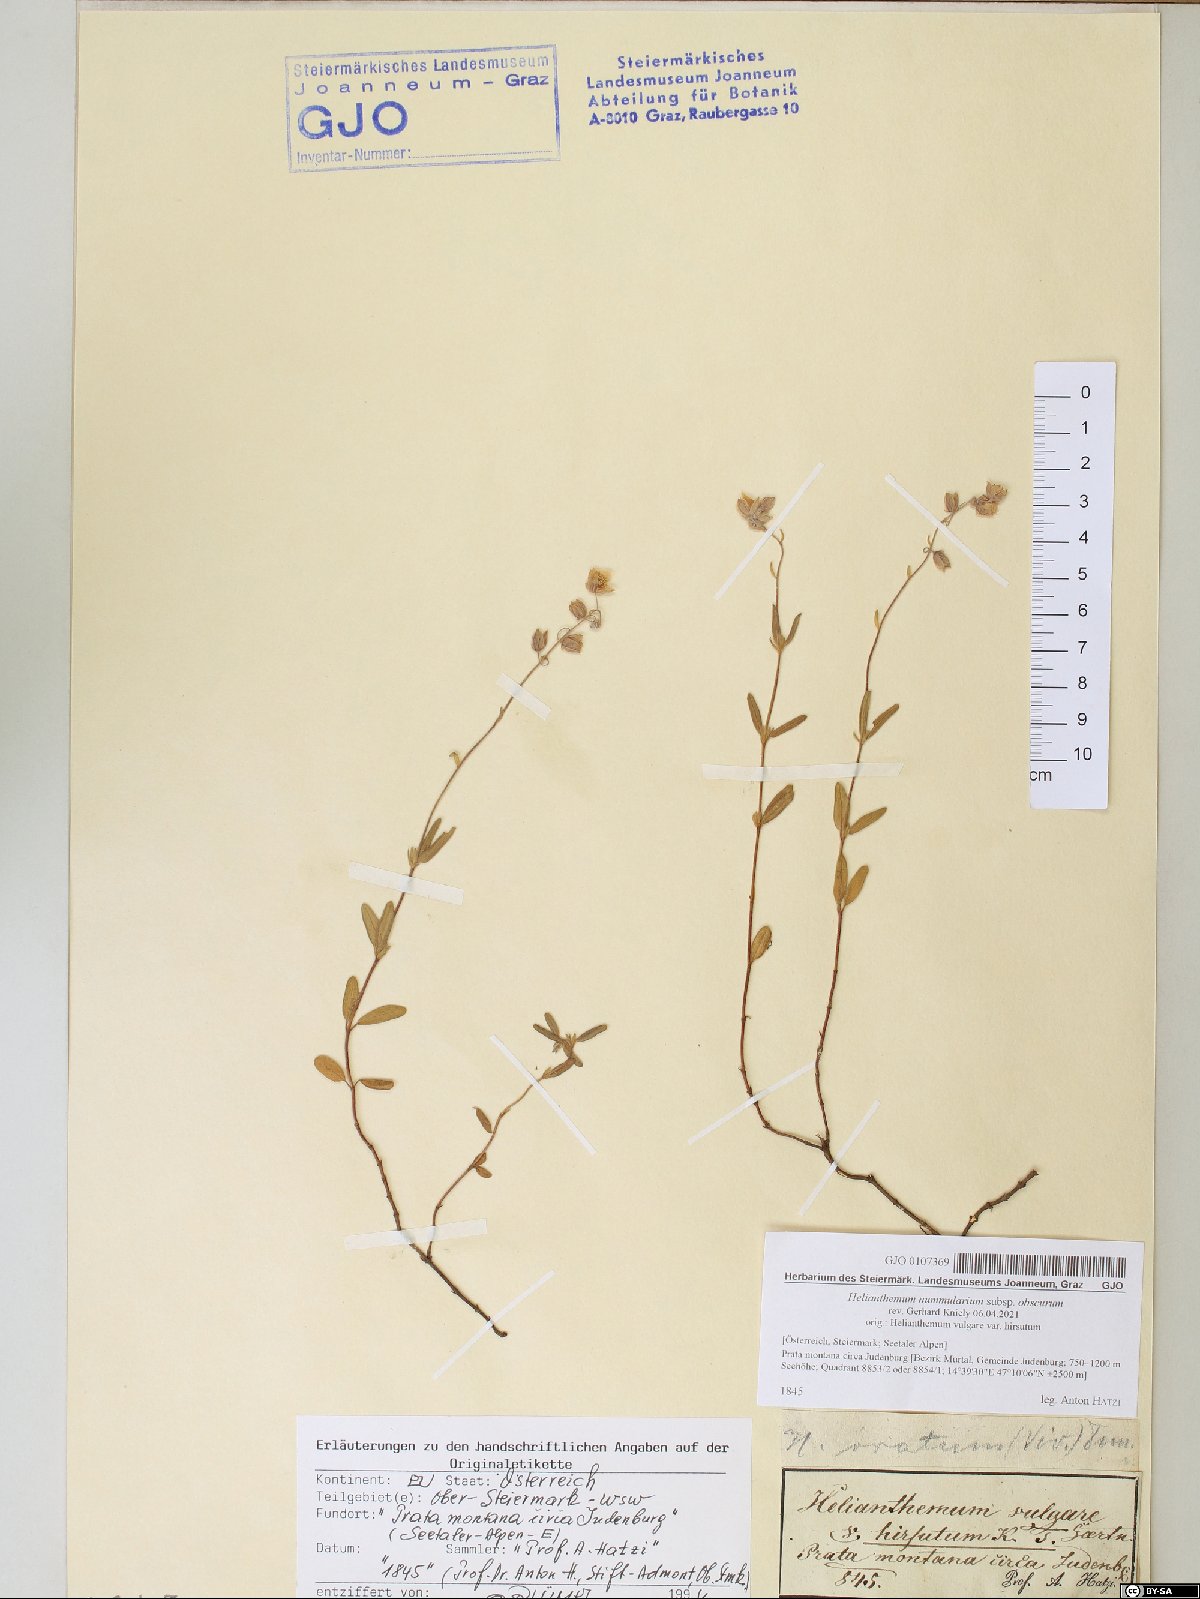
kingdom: Plantae
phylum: Tracheophyta
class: Magnoliopsida
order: Malvales
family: Cistaceae
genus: Helianthemum
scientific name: Helianthemum nummularium
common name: Common rock-rose
